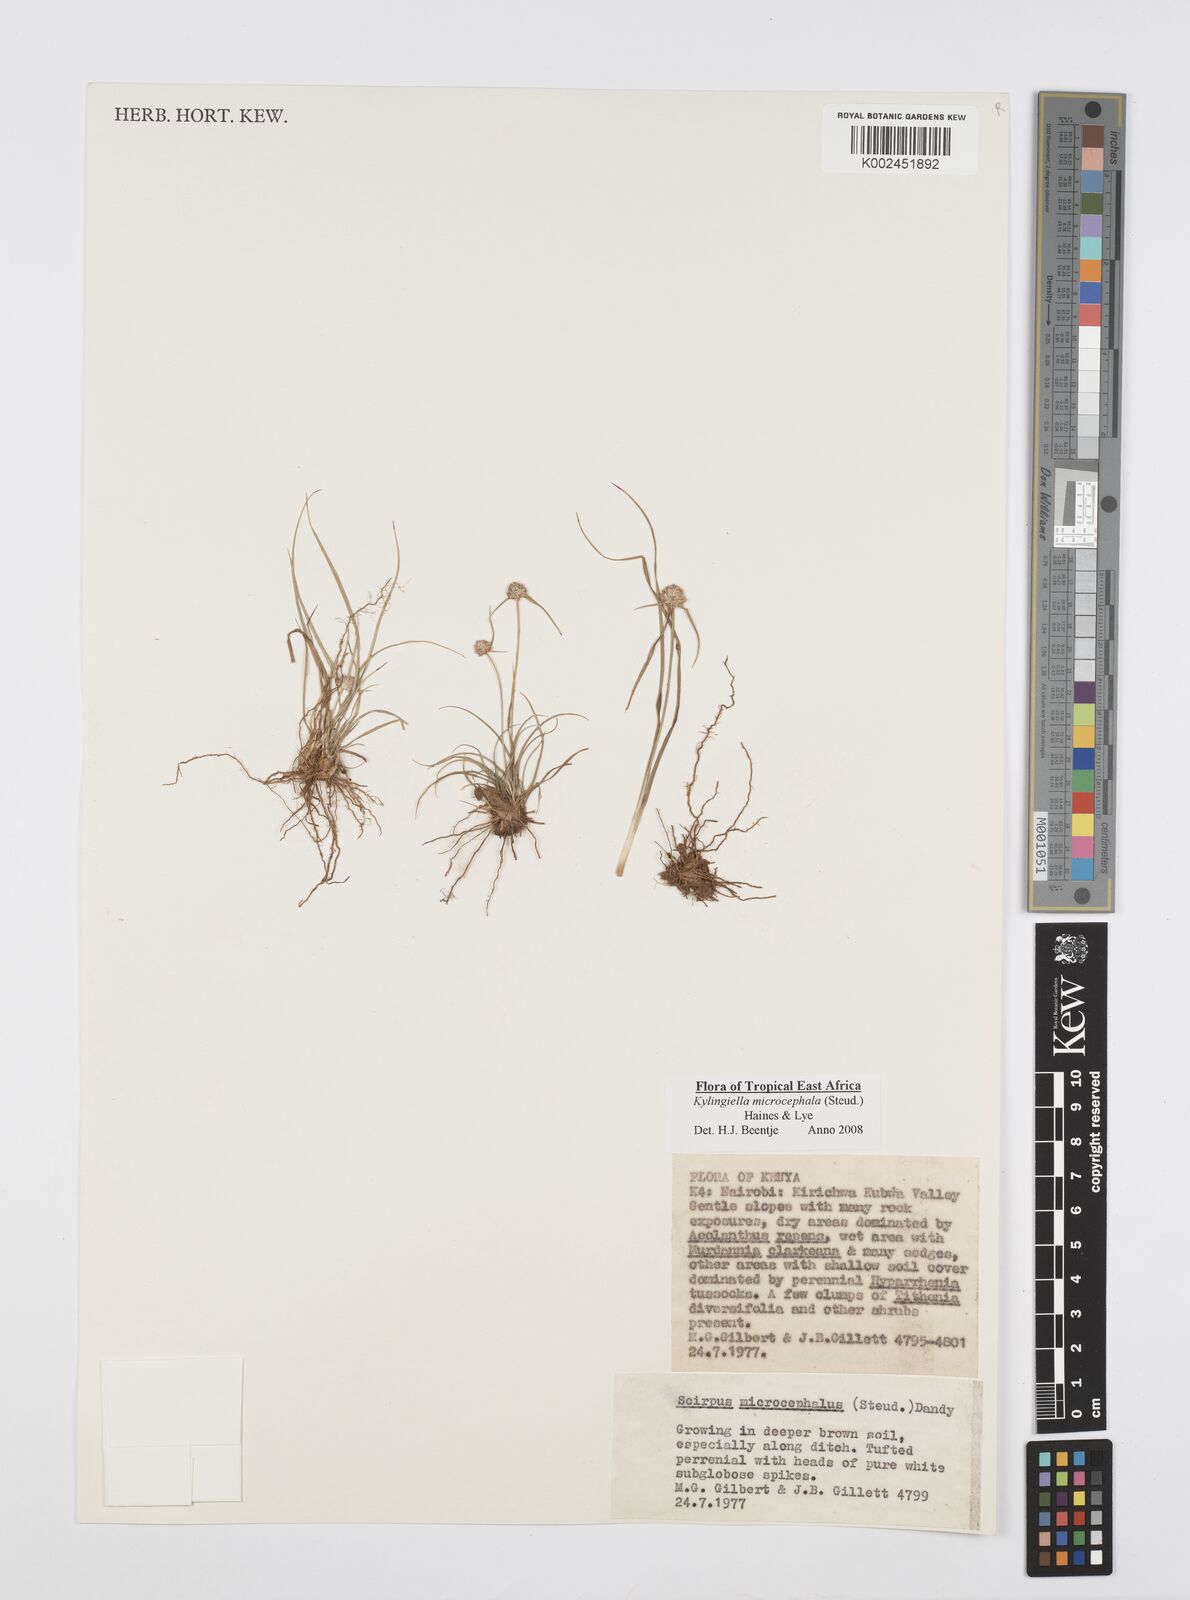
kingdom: Plantae
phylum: Tracheophyta
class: Liliopsida
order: Poales
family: Cyperaceae
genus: Cyperus
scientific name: Cyperus microcephalus
